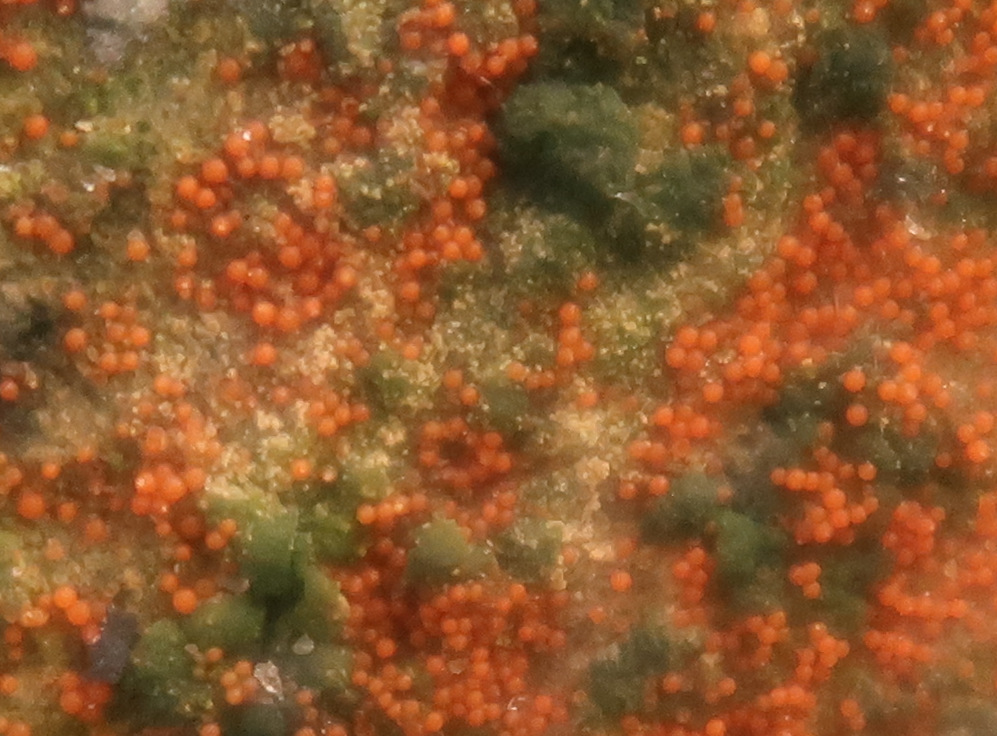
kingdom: Fungi
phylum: Ascomycota
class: Sordariomycetes
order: Hypocreales
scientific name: Hypocreales
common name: kødkerneordenen
